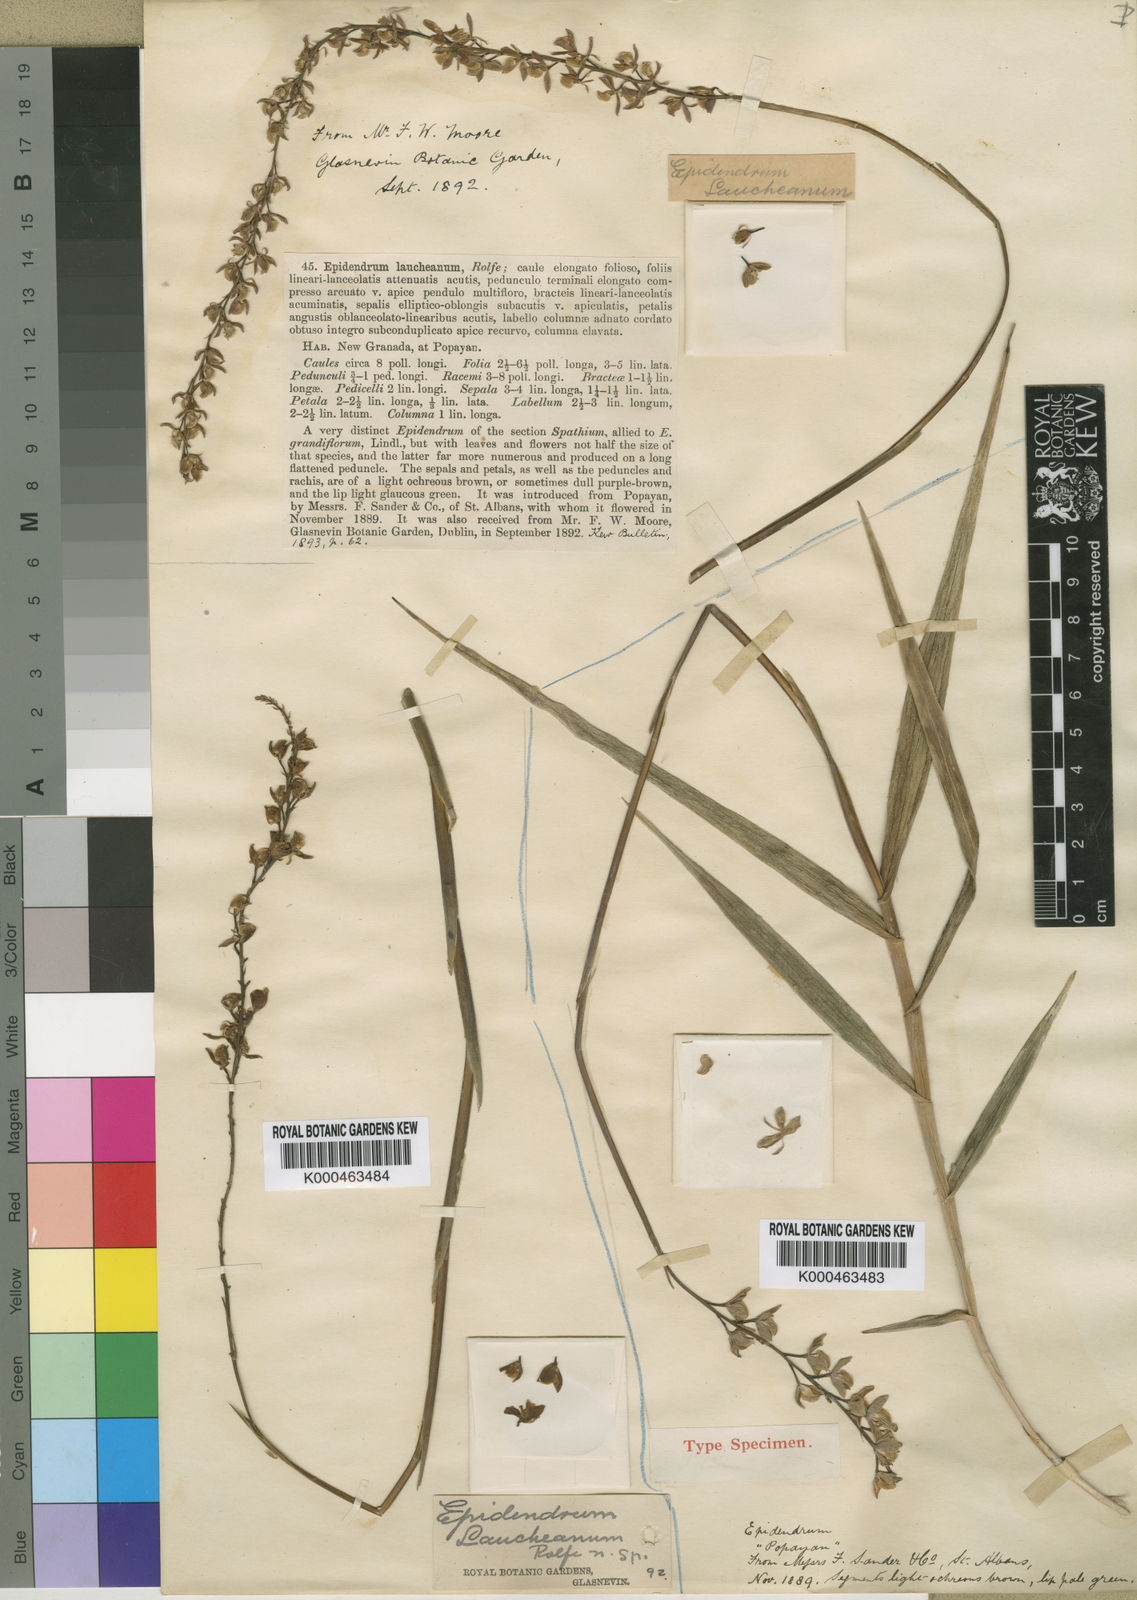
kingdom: Plantae
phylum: Tracheophyta
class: Liliopsida
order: Asparagales
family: Orchidaceae
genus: Epidendrum
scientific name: Epidendrum laucheanum
